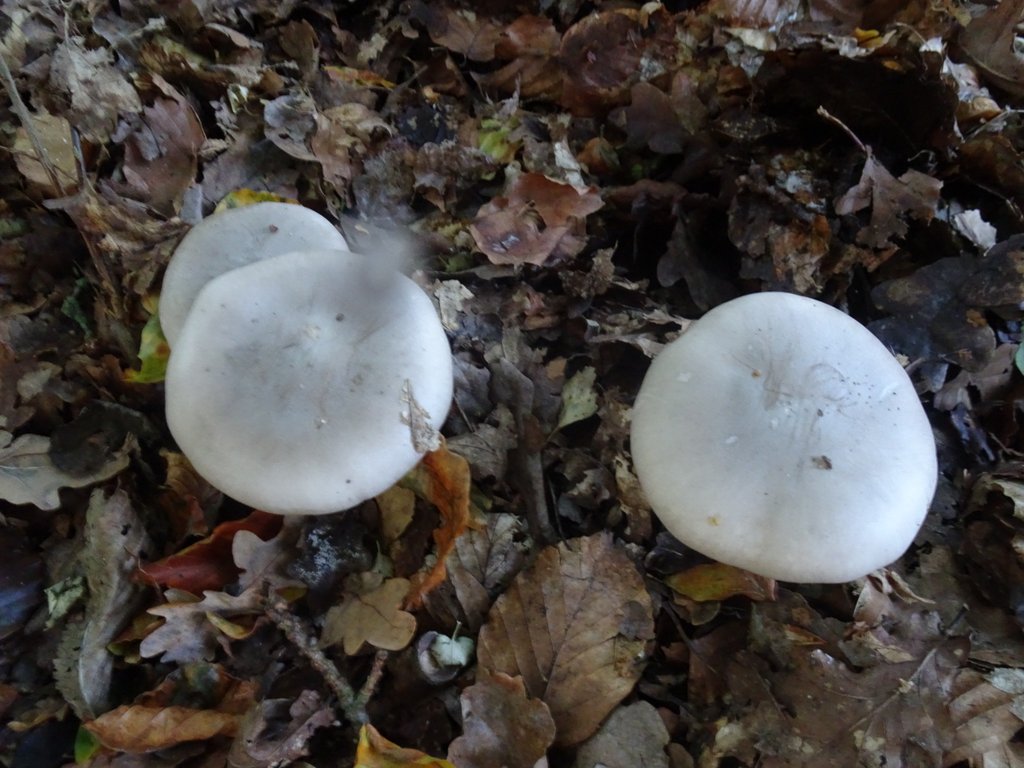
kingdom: Fungi
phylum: Basidiomycota
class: Agaricomycetes
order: Agaricales
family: Tricholomataceae
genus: Clitocybe
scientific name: Clitocybe nebularis
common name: tåge-tragthat
